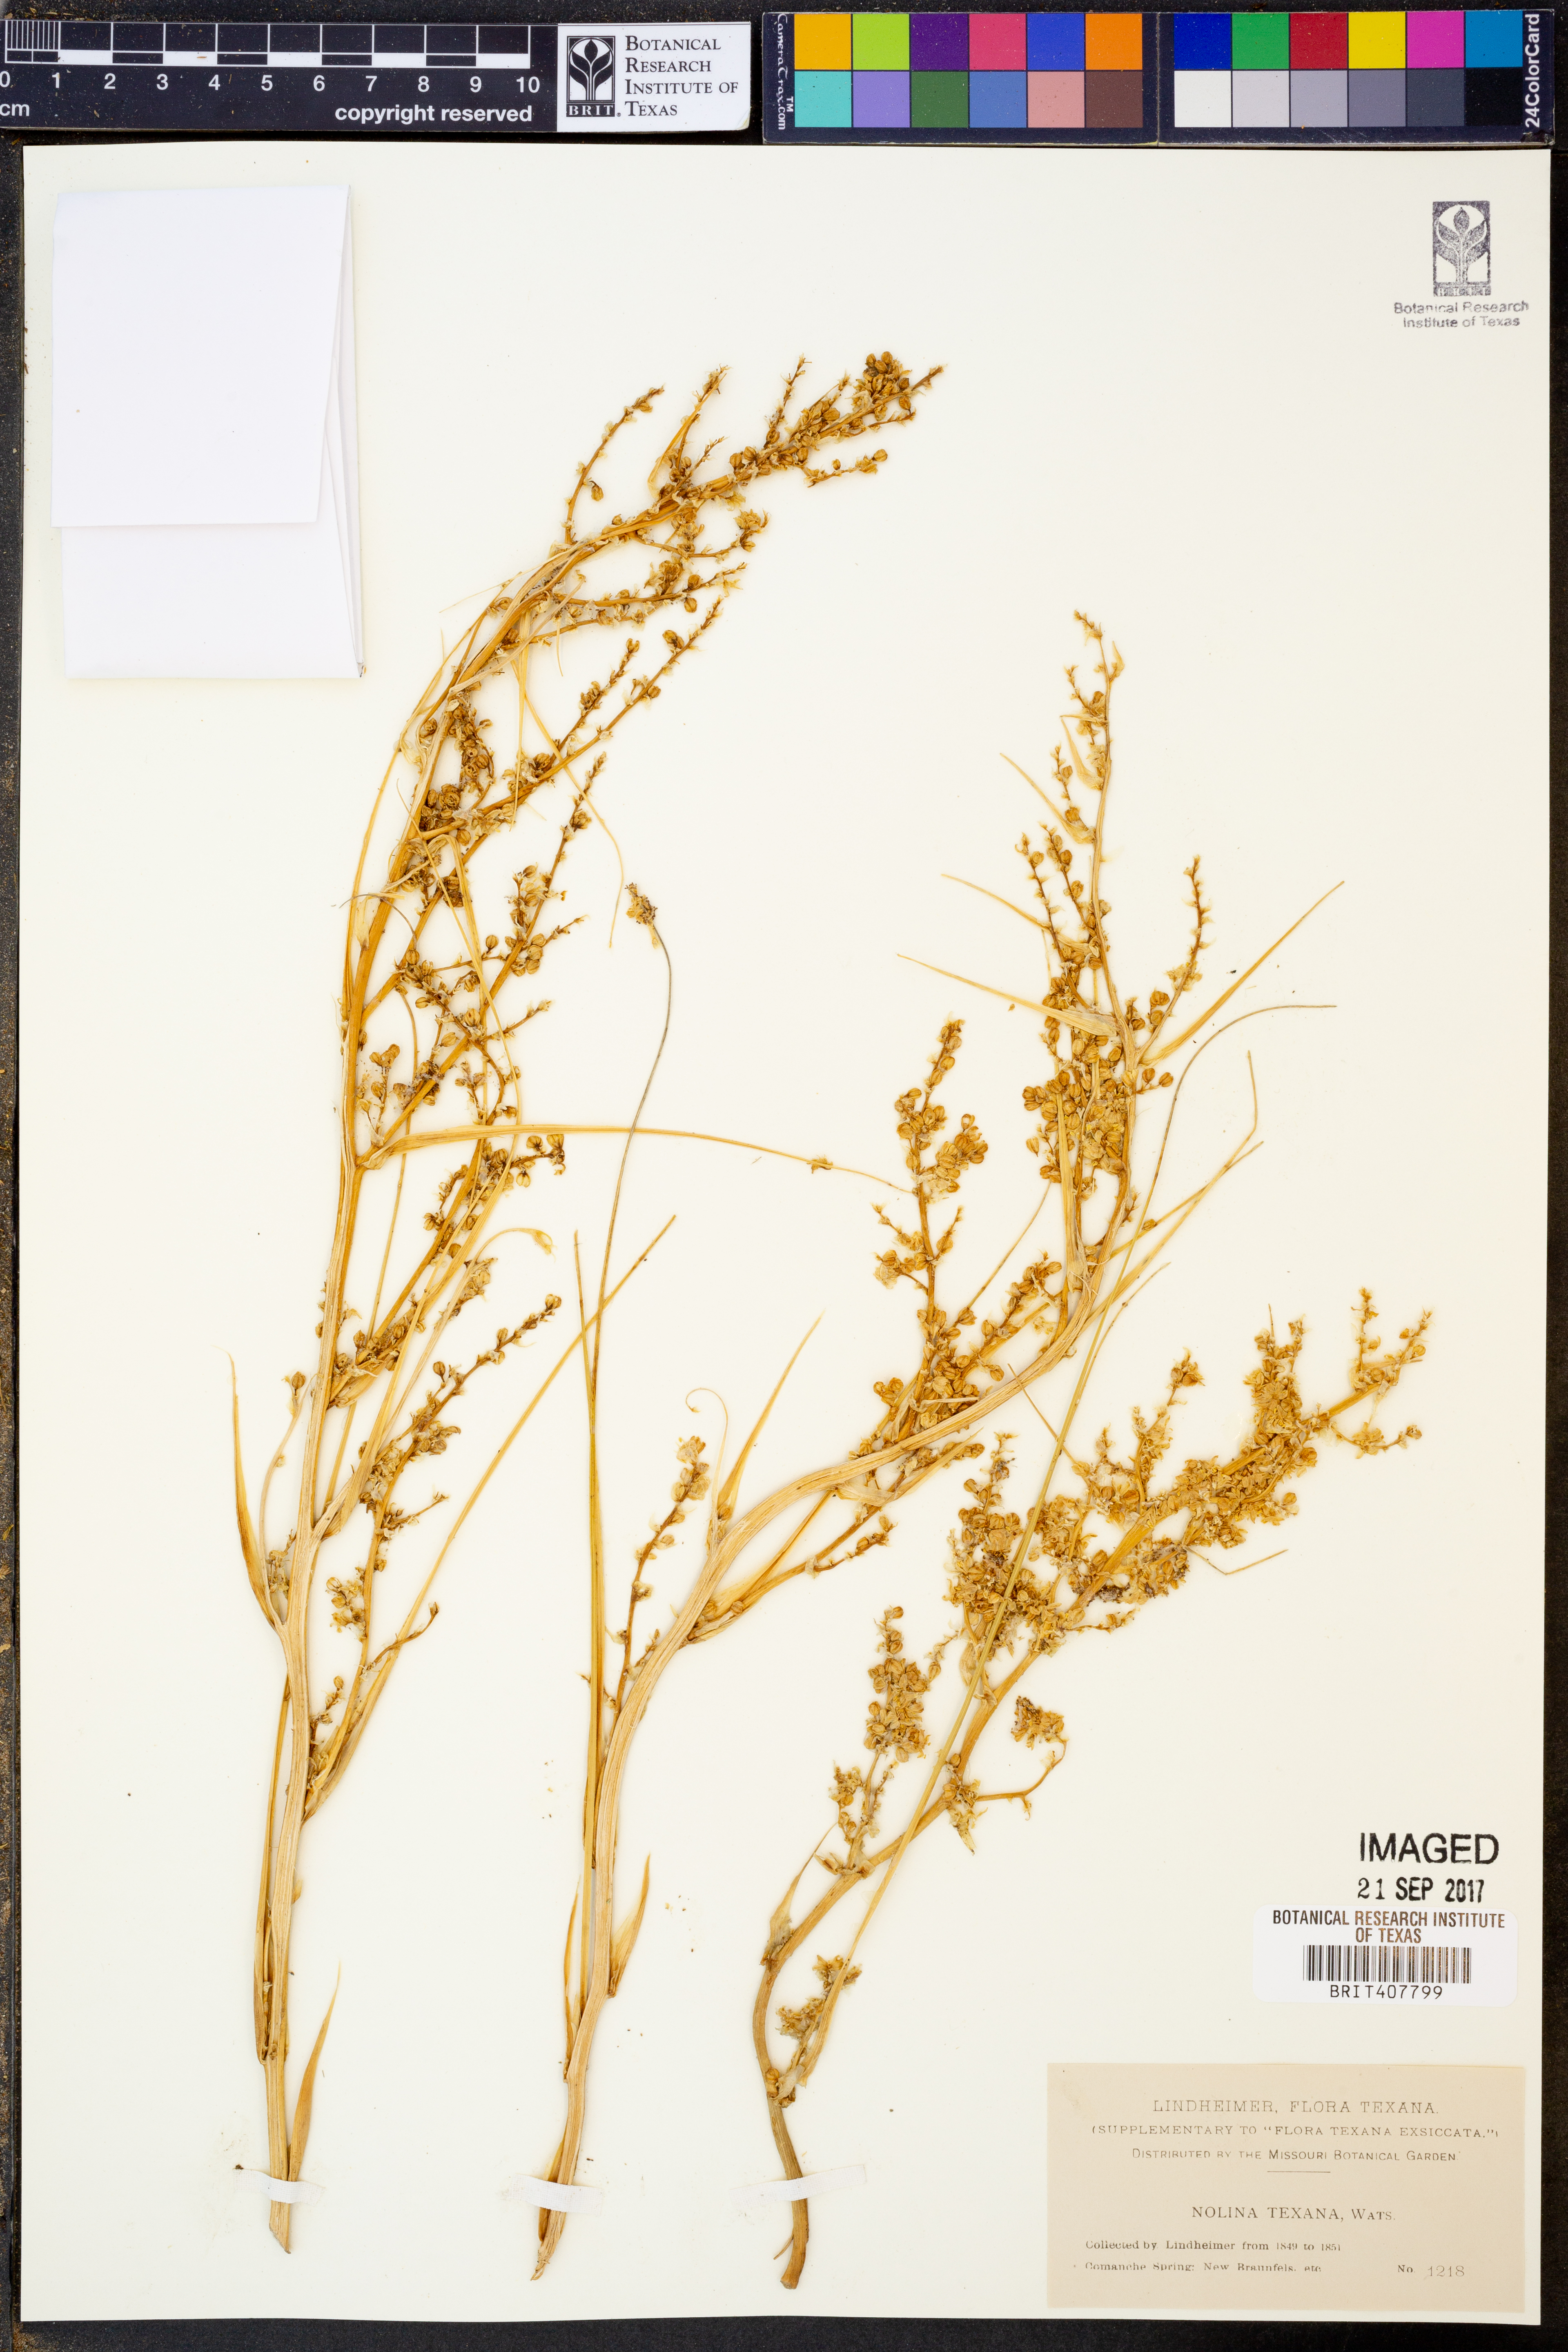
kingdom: Plantae
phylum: Tracheophyta
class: Liliopsida
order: Asparagales
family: Asparagaceae
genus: Nolina
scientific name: Nolina texana
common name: Texas sacahuiste
